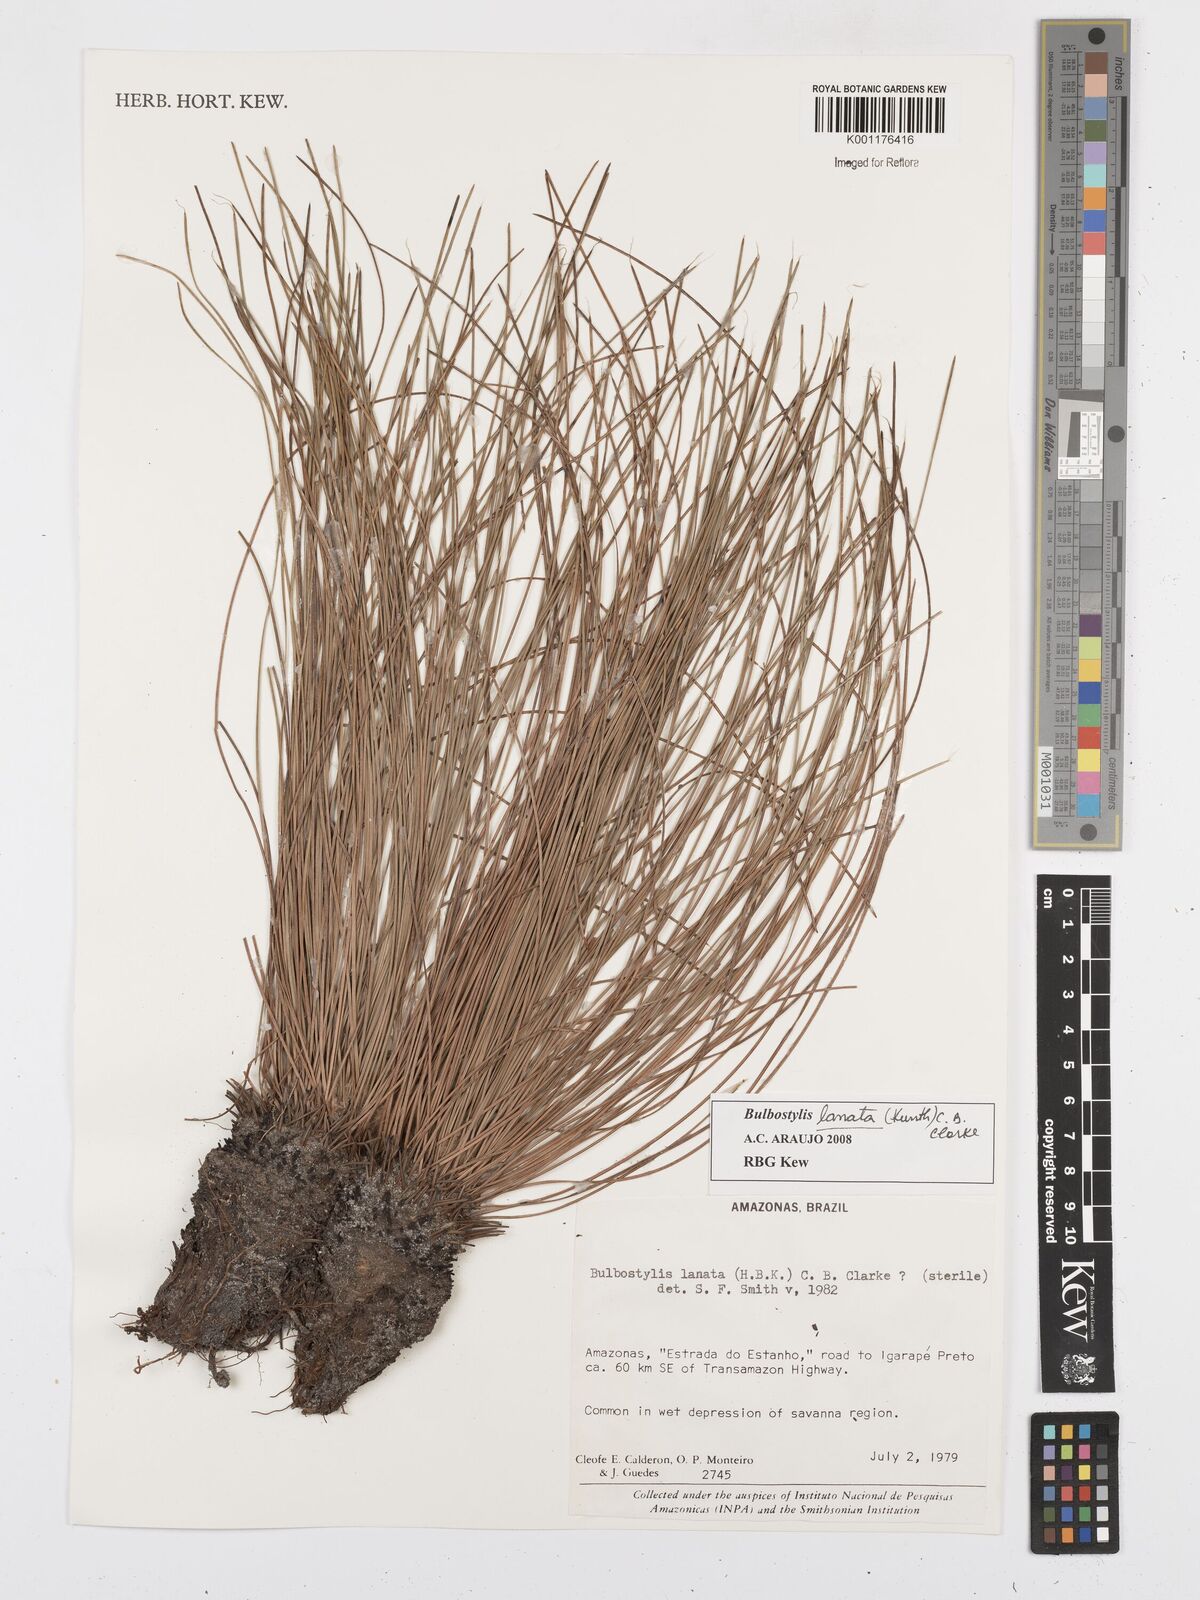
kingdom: Plantae
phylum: Tracheophyta
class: Liliopsida
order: Poales
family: Cyperaceae
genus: Bulbostylis
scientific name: Bulbostylis lanata
